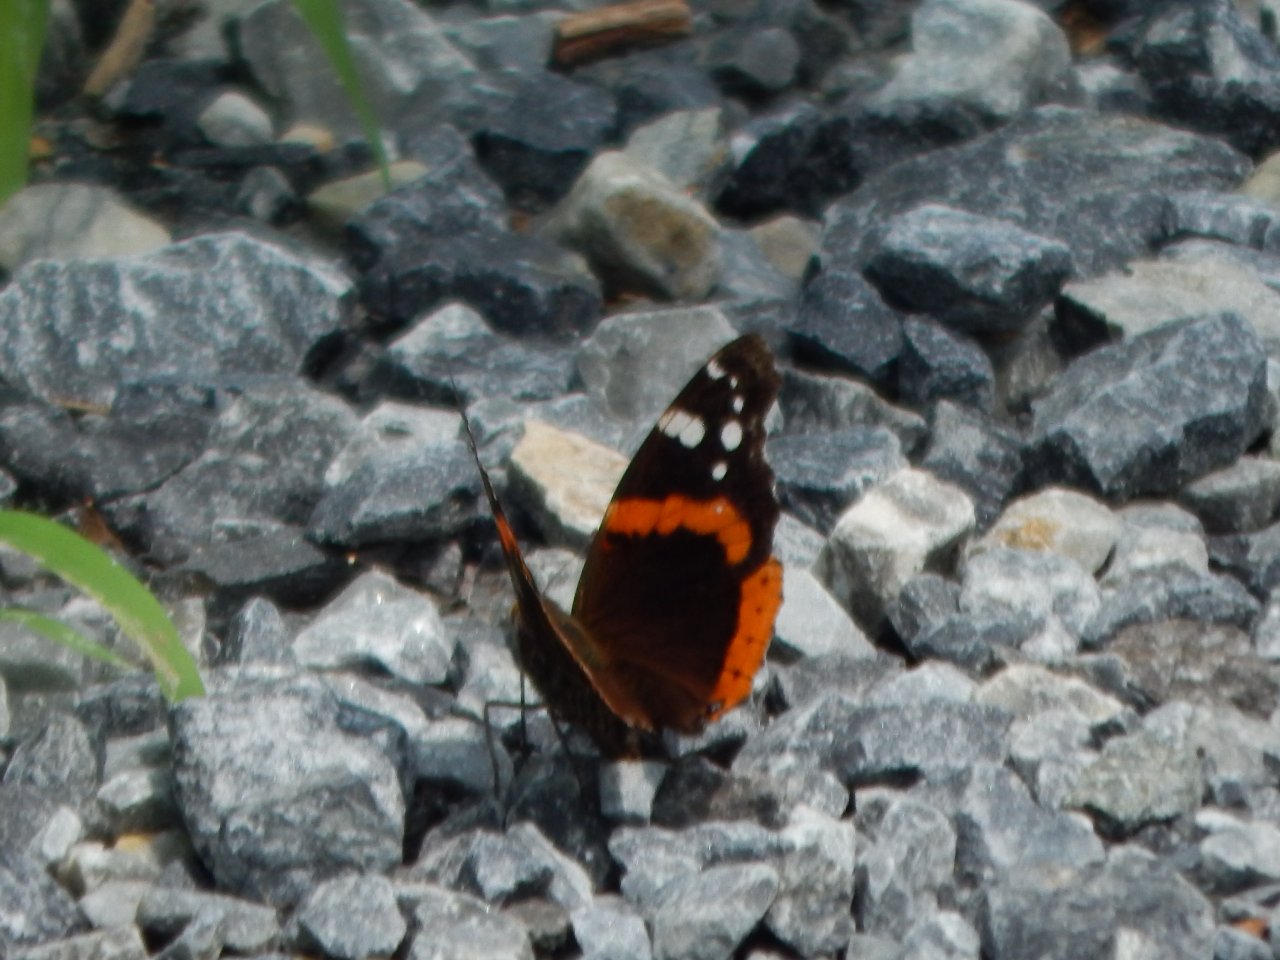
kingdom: Animalia
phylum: Arthropoda
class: Insecta
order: Lepidoptera
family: Nymphalidae
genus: Vanessa
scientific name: Vanessa atalanta
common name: Red Admiral
